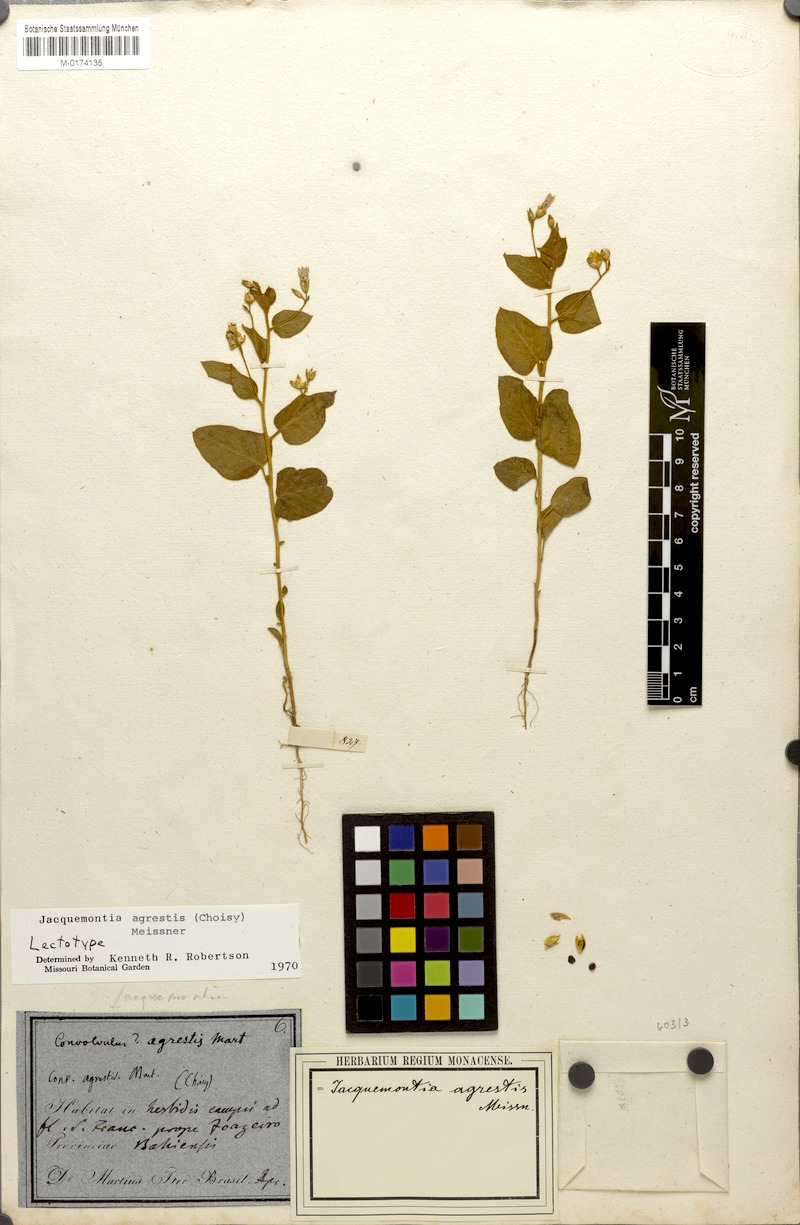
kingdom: Plantae
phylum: Tracheophyta
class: Magnoliopsida
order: Solanales
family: Convolvulaceae
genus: Jacquemontia
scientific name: Jacquemontia agrestis
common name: Midnightblue clustervine
